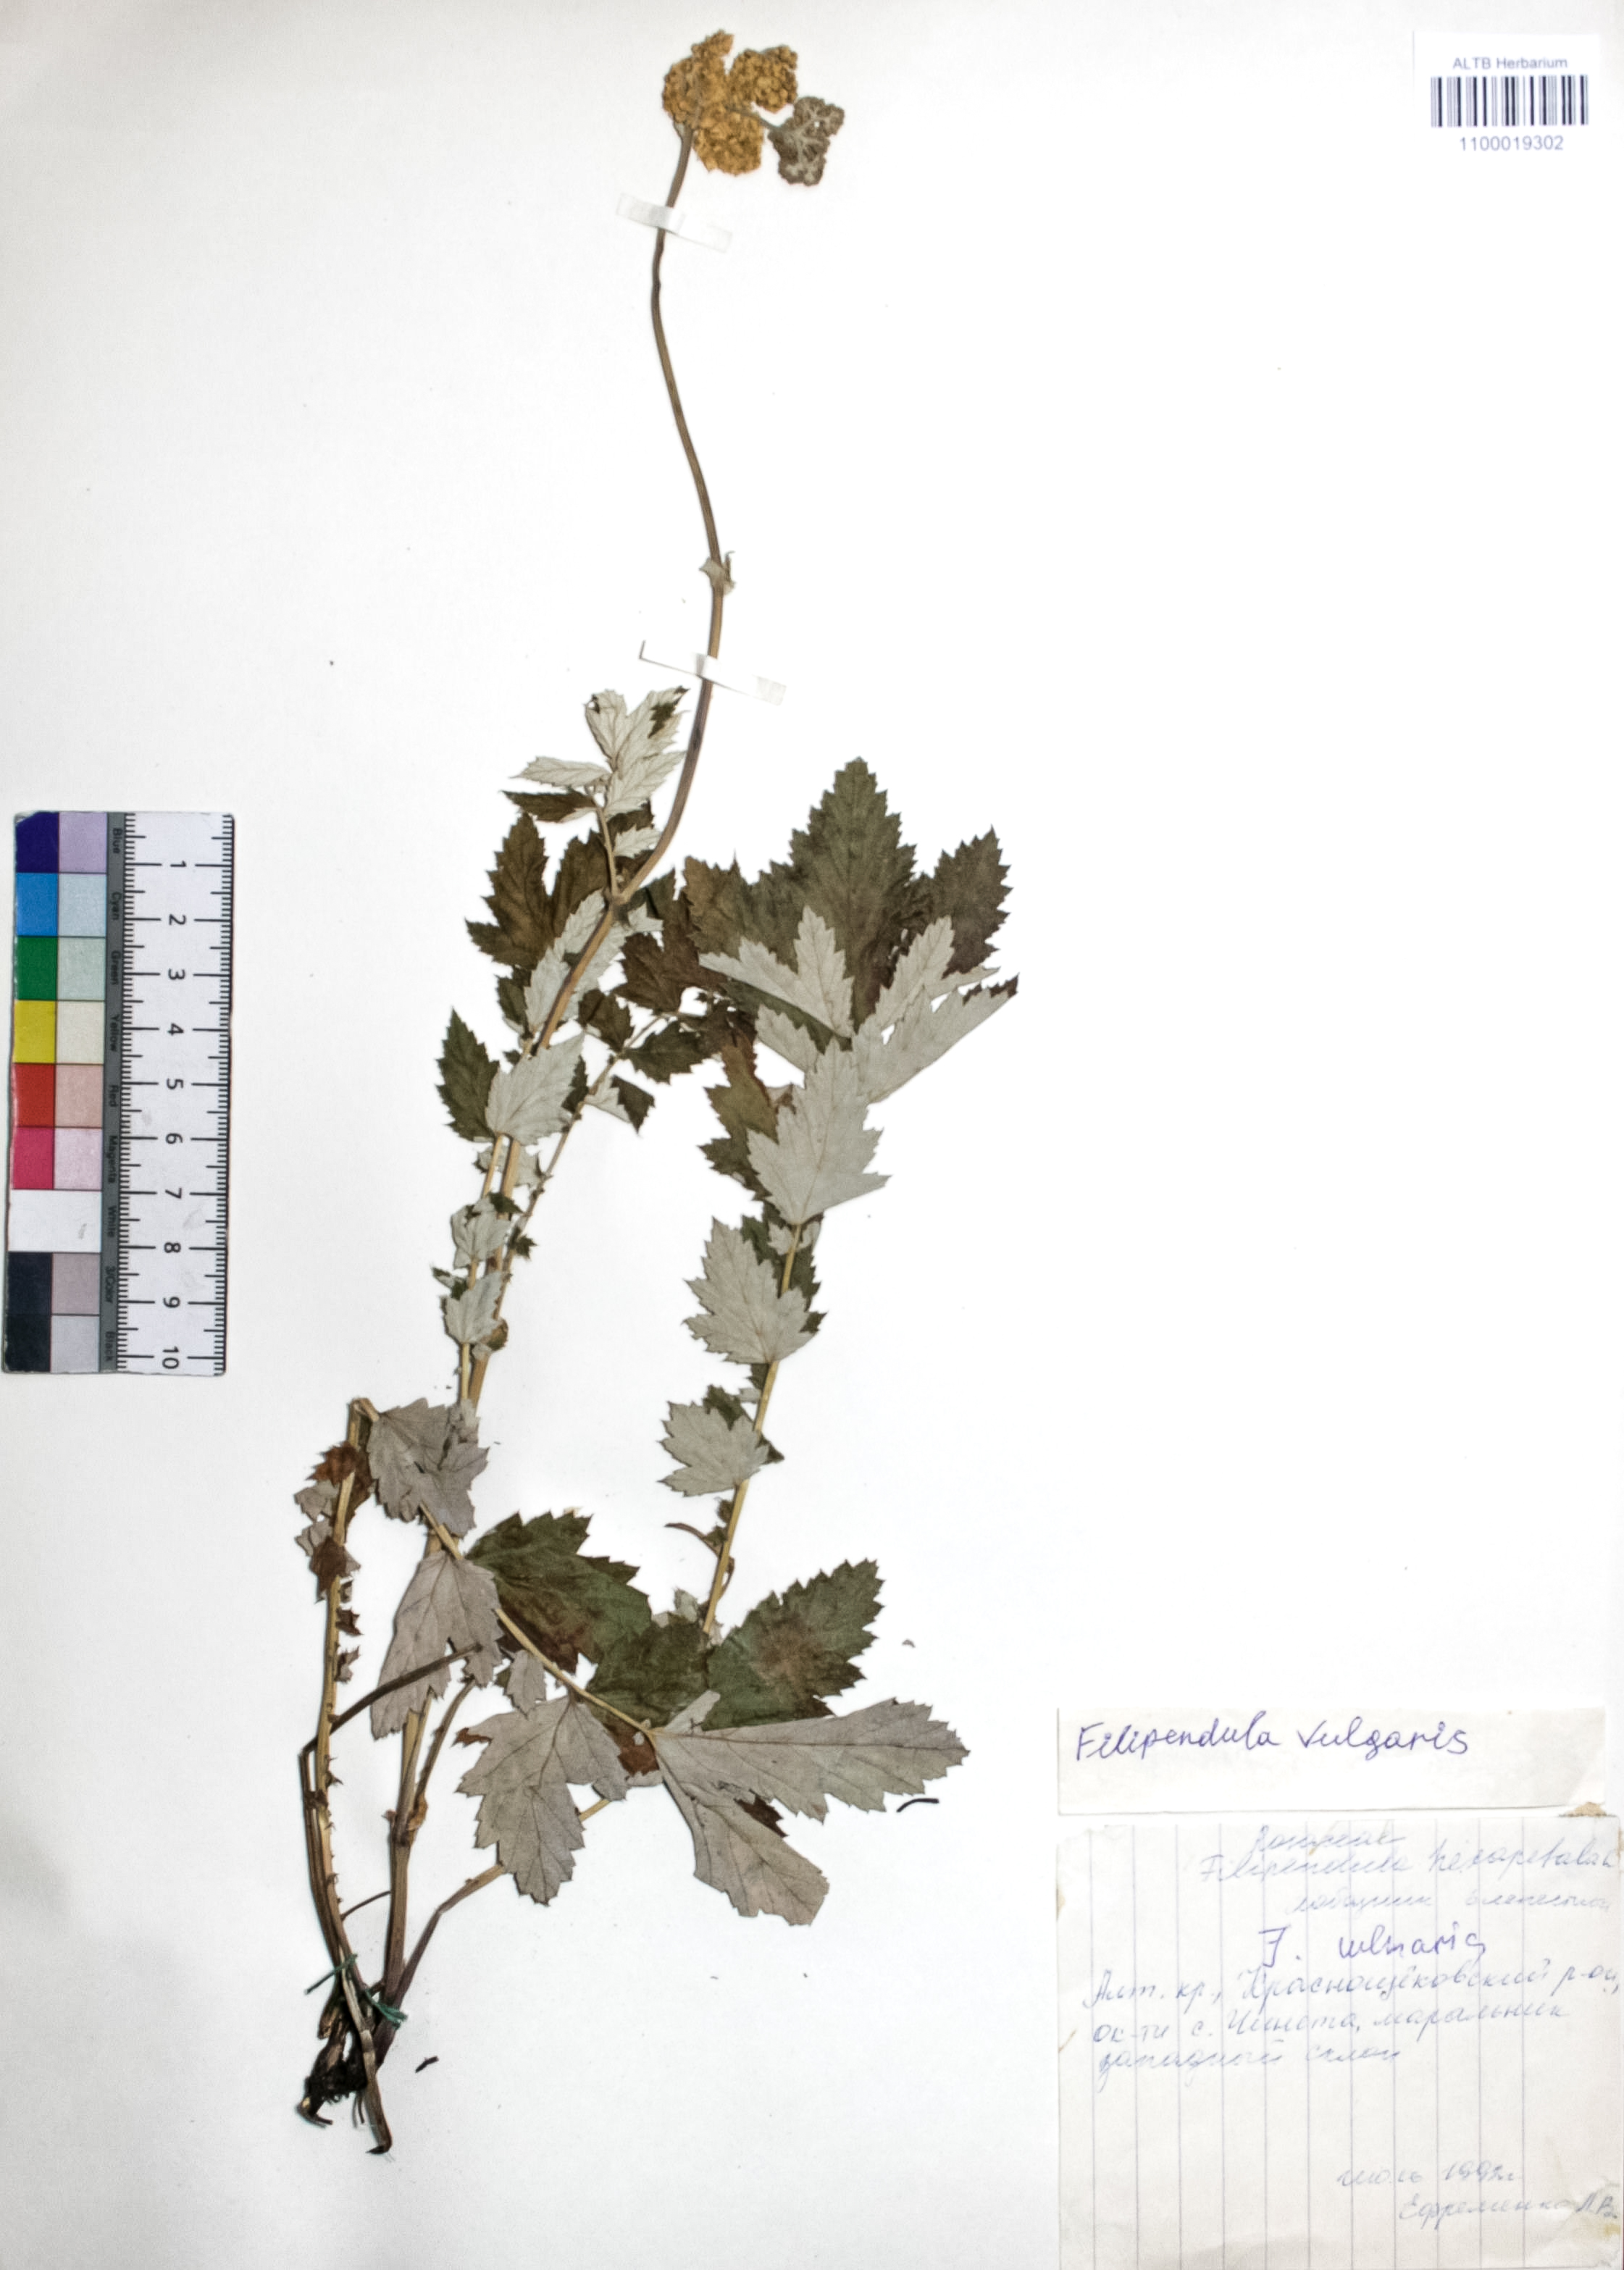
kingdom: Plantae
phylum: Tracheophyta
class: Magnoliopsida
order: Rosales
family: Rosaceae
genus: Filipendula
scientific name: Filipendula vulgaris
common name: Dropwort
